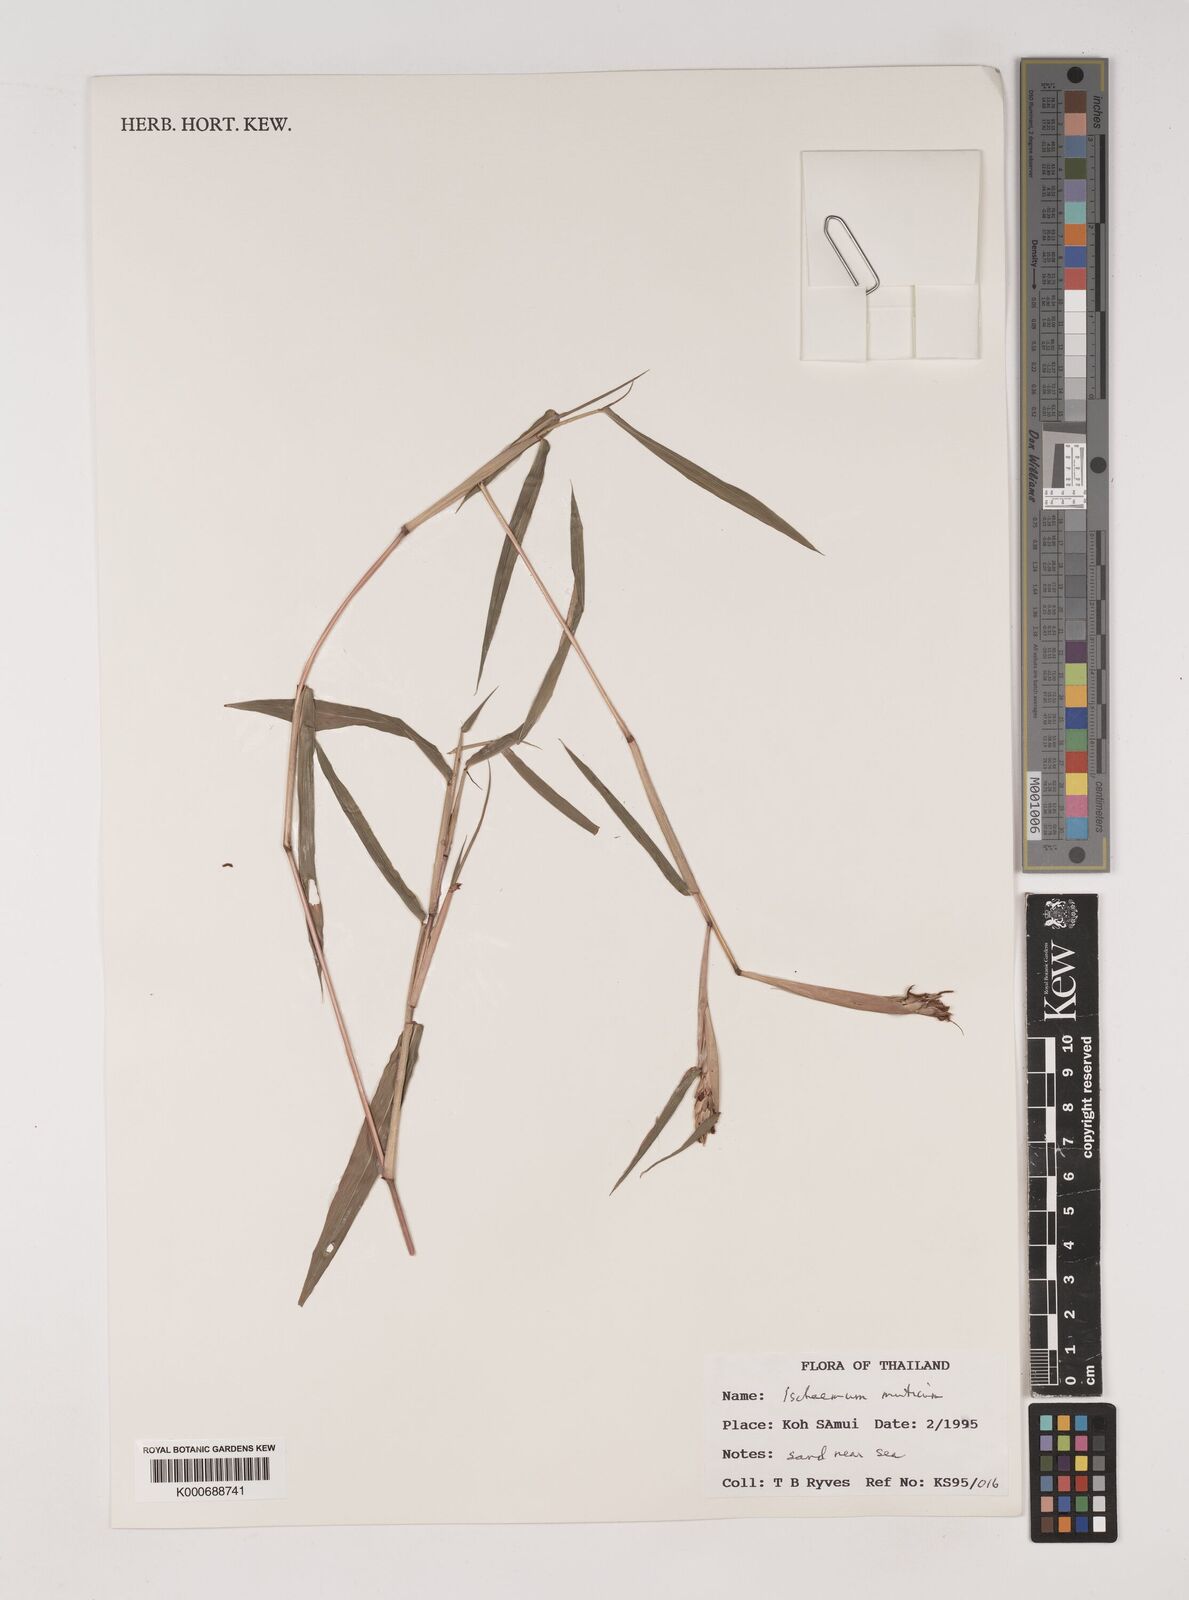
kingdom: Plantae
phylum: Tracheophyta
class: Liliopsida
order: Poales
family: Poaceae
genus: Ischaemum
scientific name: Ischaemum muticum
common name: Drought grass
